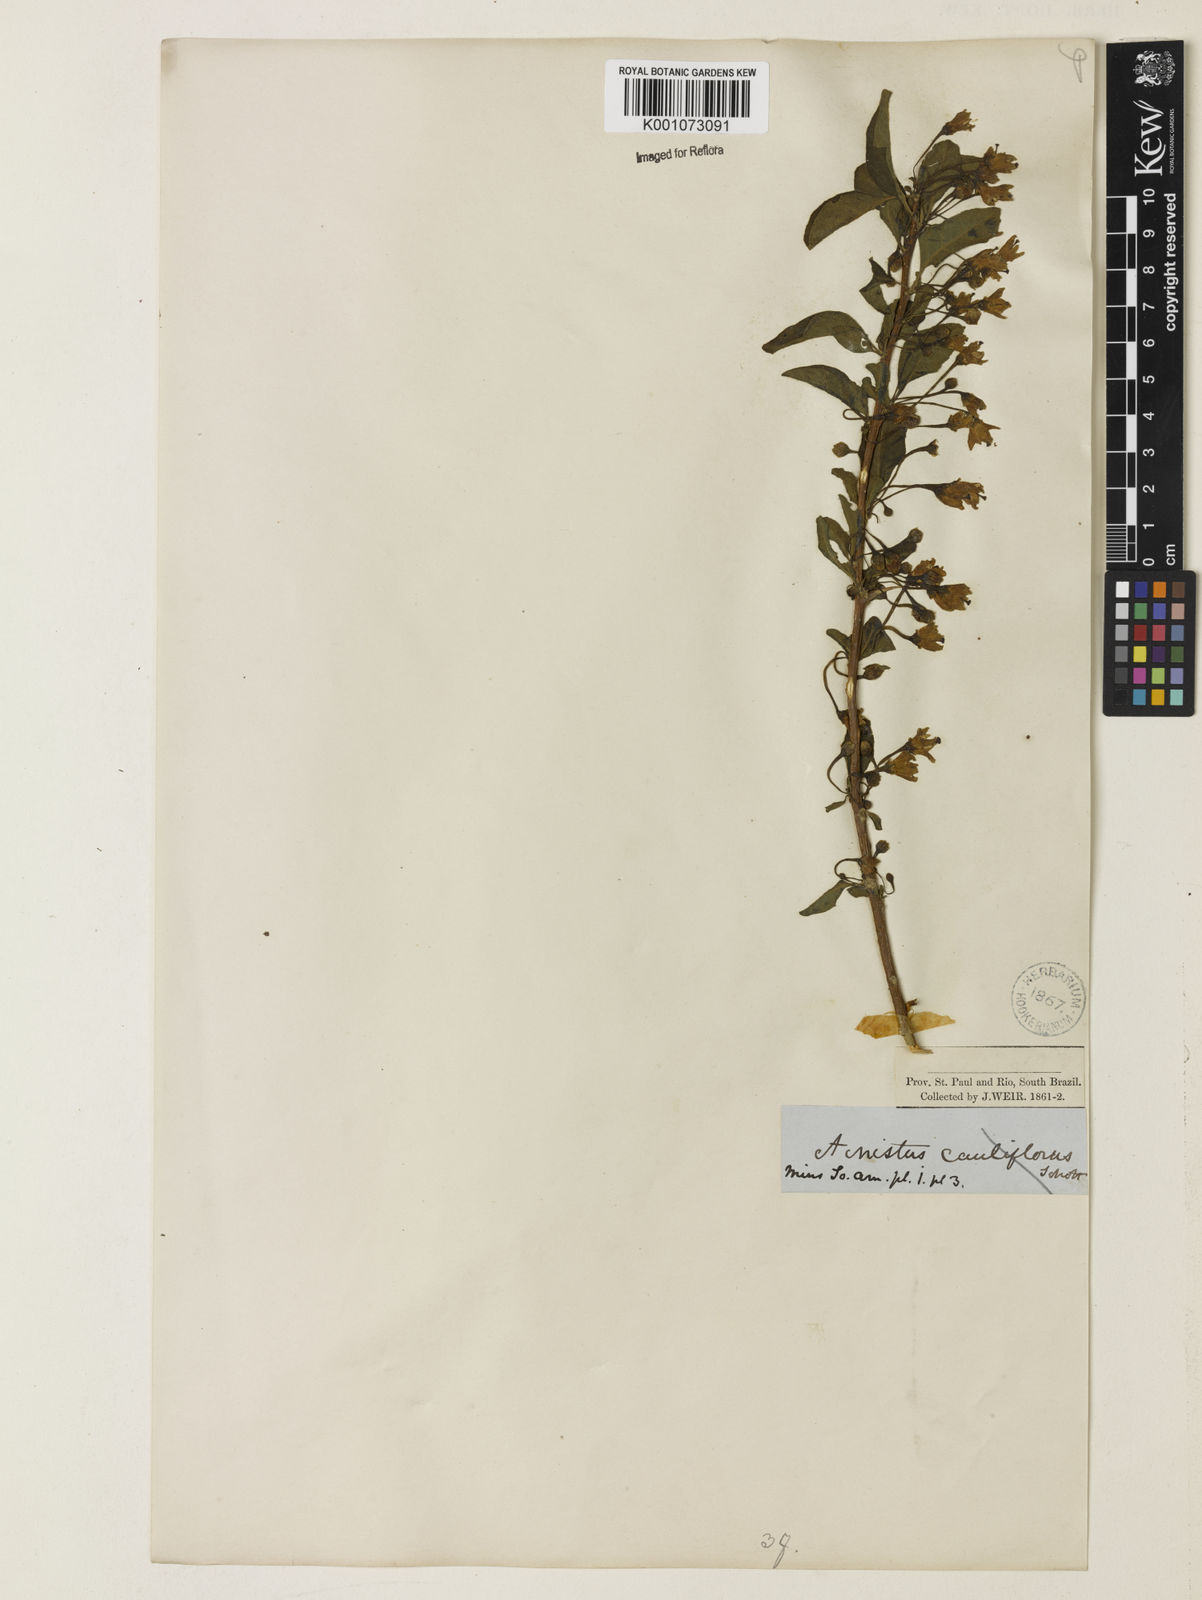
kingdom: Plantae
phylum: Tracheophyta
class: Magnoliopsida
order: Solanales
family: Solanaceae
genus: Iochroma
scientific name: Iochroma Acnistus spec
